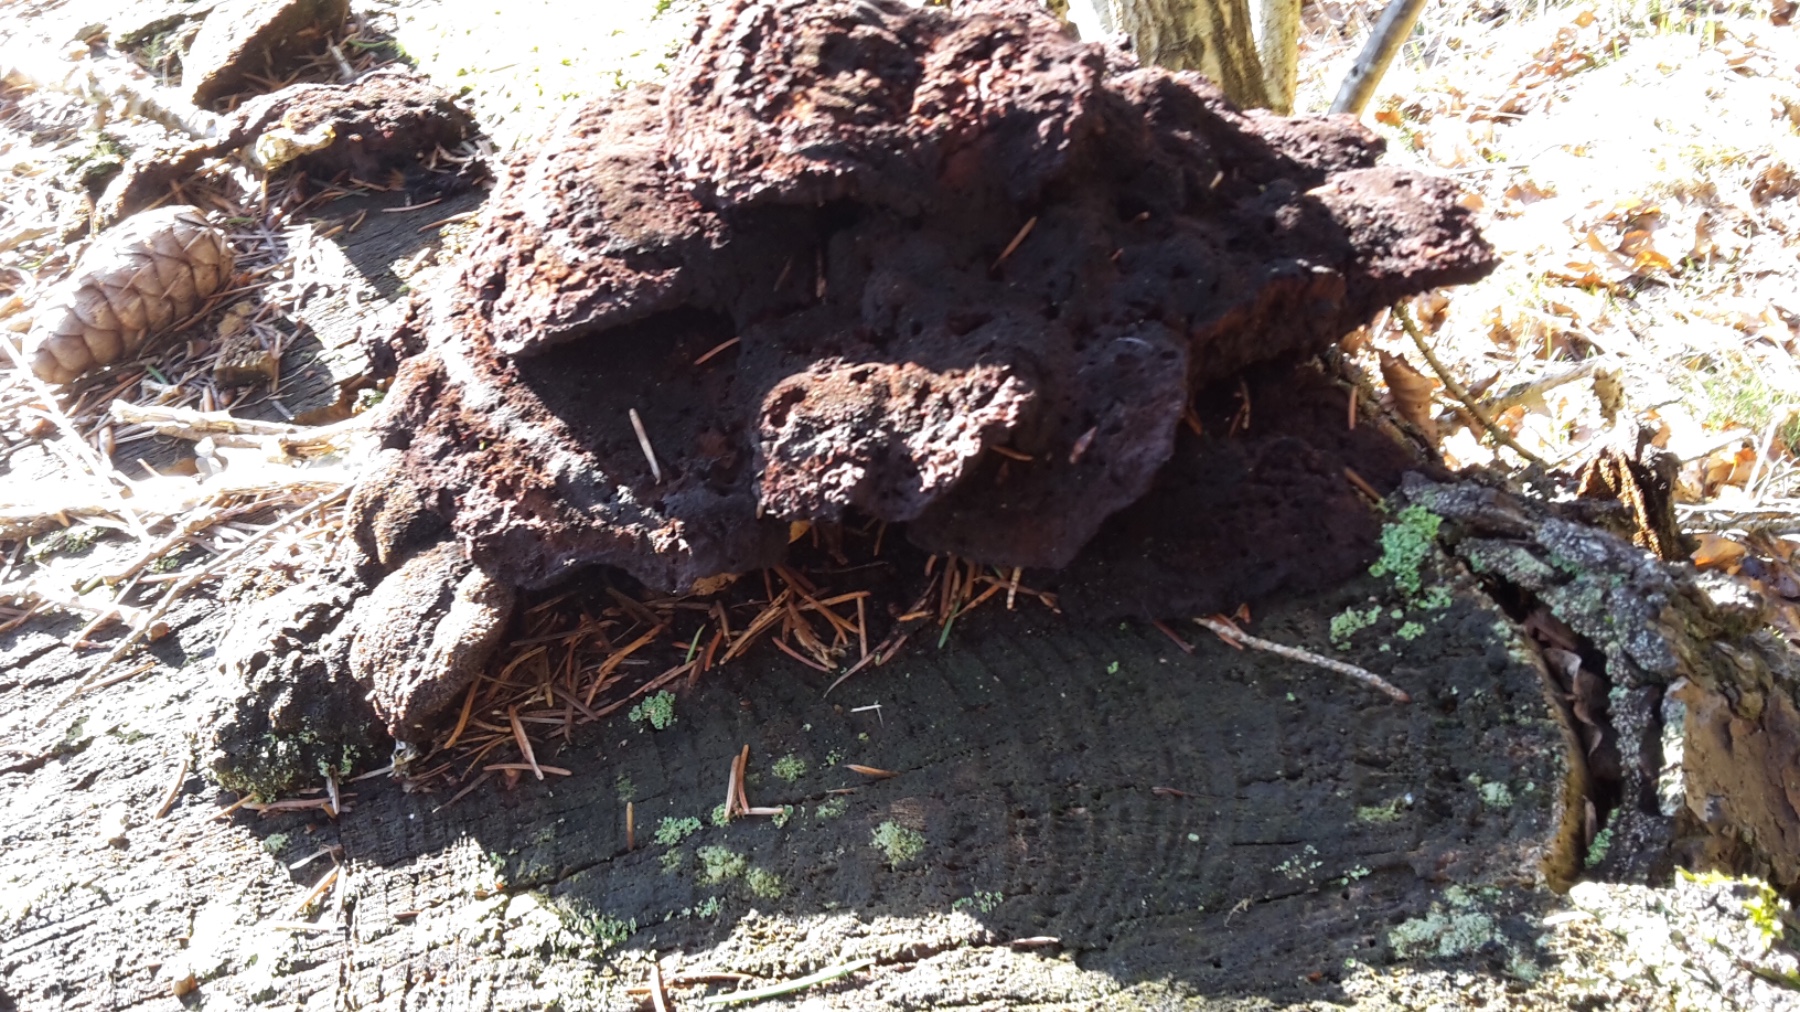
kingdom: Fungi
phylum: Basidiomycota
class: Agaricomycetes
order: Polyporales
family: Laetiporaceae
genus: Phaeolus
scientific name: Phaeolus schweinitzii
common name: brunporesvamp
